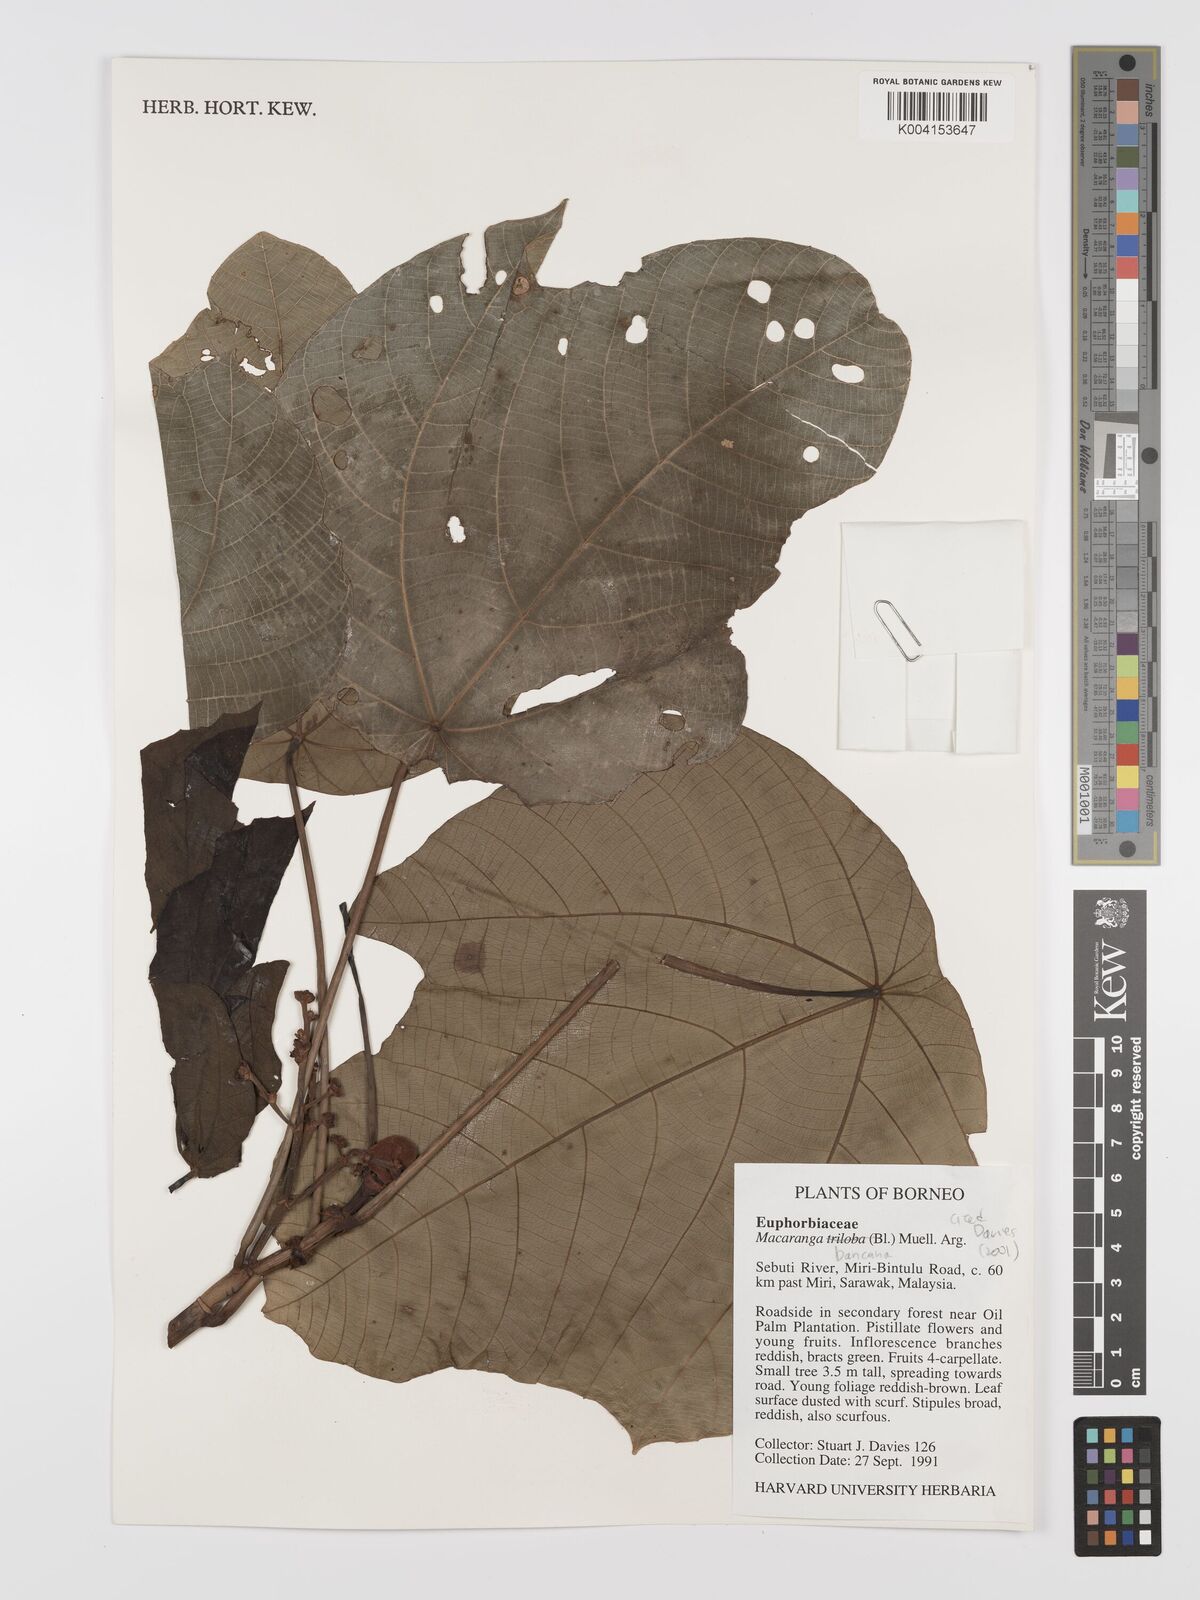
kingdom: Plantae
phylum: Tracheophyta
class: Magnoliopsida
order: Malpighiales
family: Euphorbiaceae
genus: Macaranga
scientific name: Macaranga triloba
